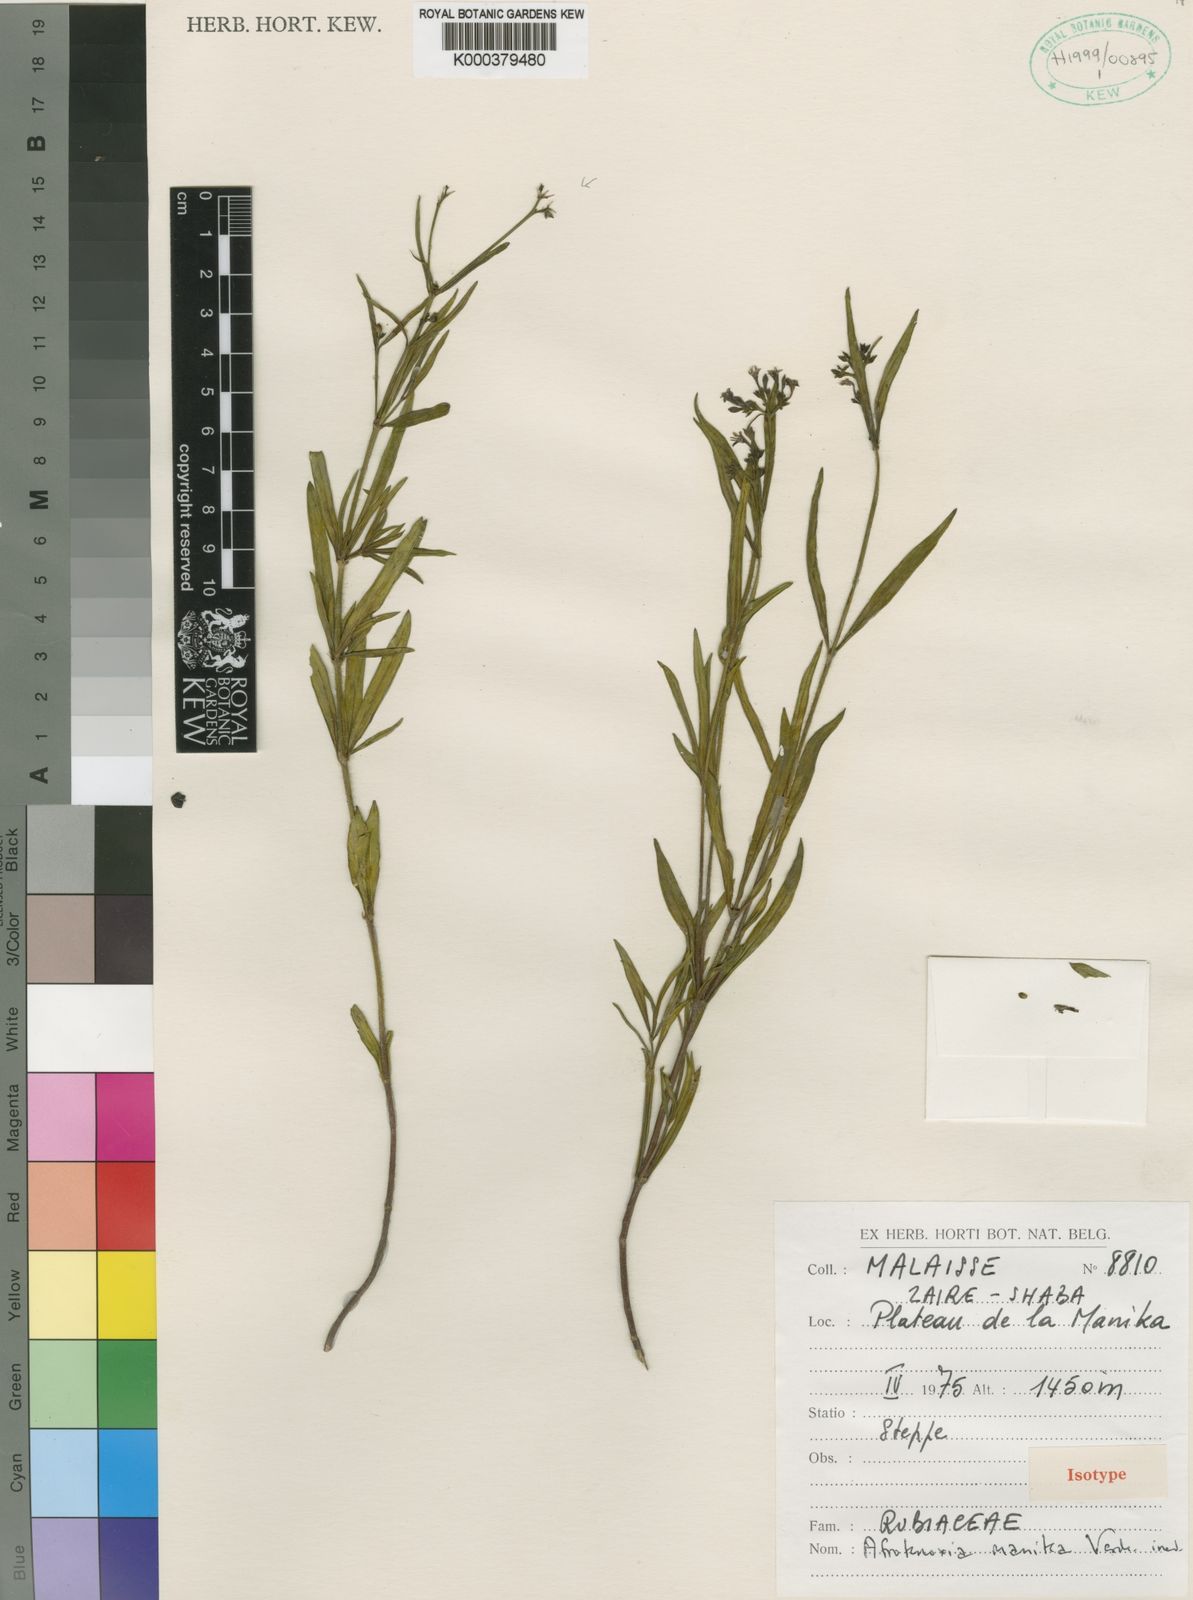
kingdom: Plantae
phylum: Tracheophyta
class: Magnoliopsida
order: Gentianales
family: Rubiaceae
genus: Knoxia
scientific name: Knoxia manika
